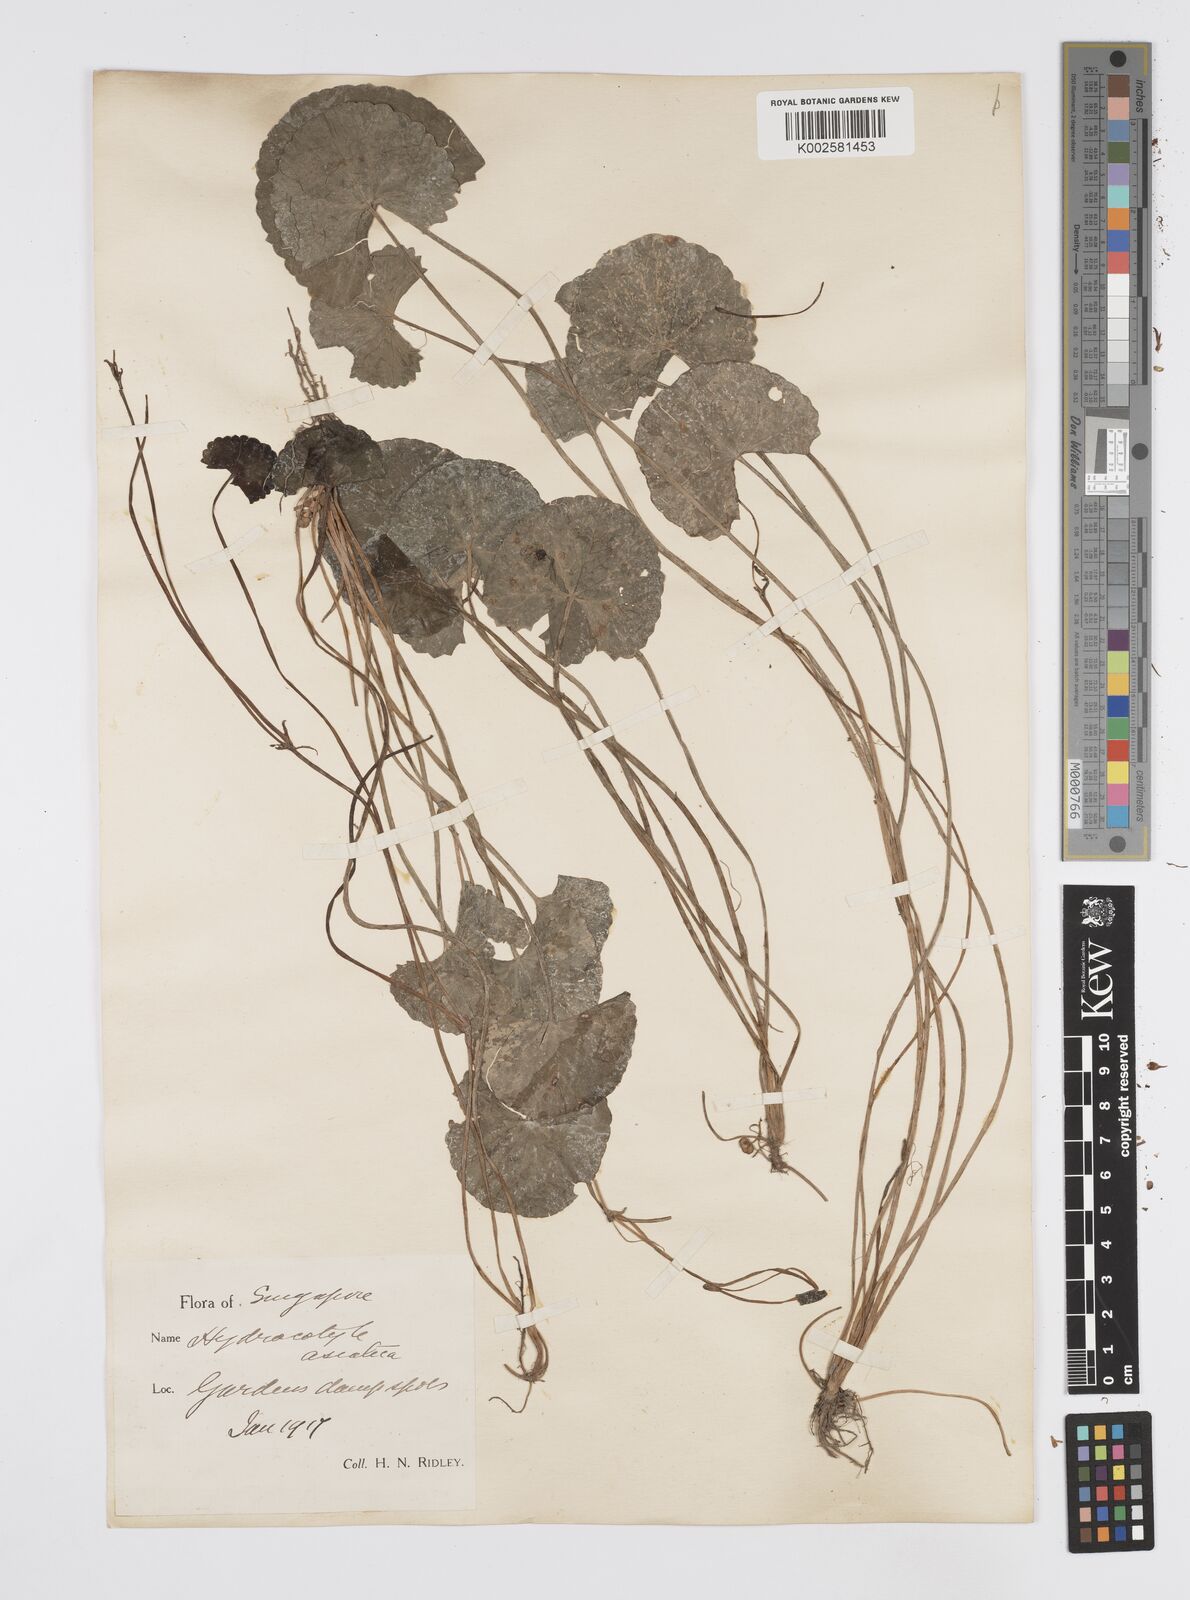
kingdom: Plantae
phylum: Tracheophyta
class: Magnoliopsida
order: Apiales
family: Apiaceae
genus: Centella
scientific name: Centella asiatica
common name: Spadeleaf
